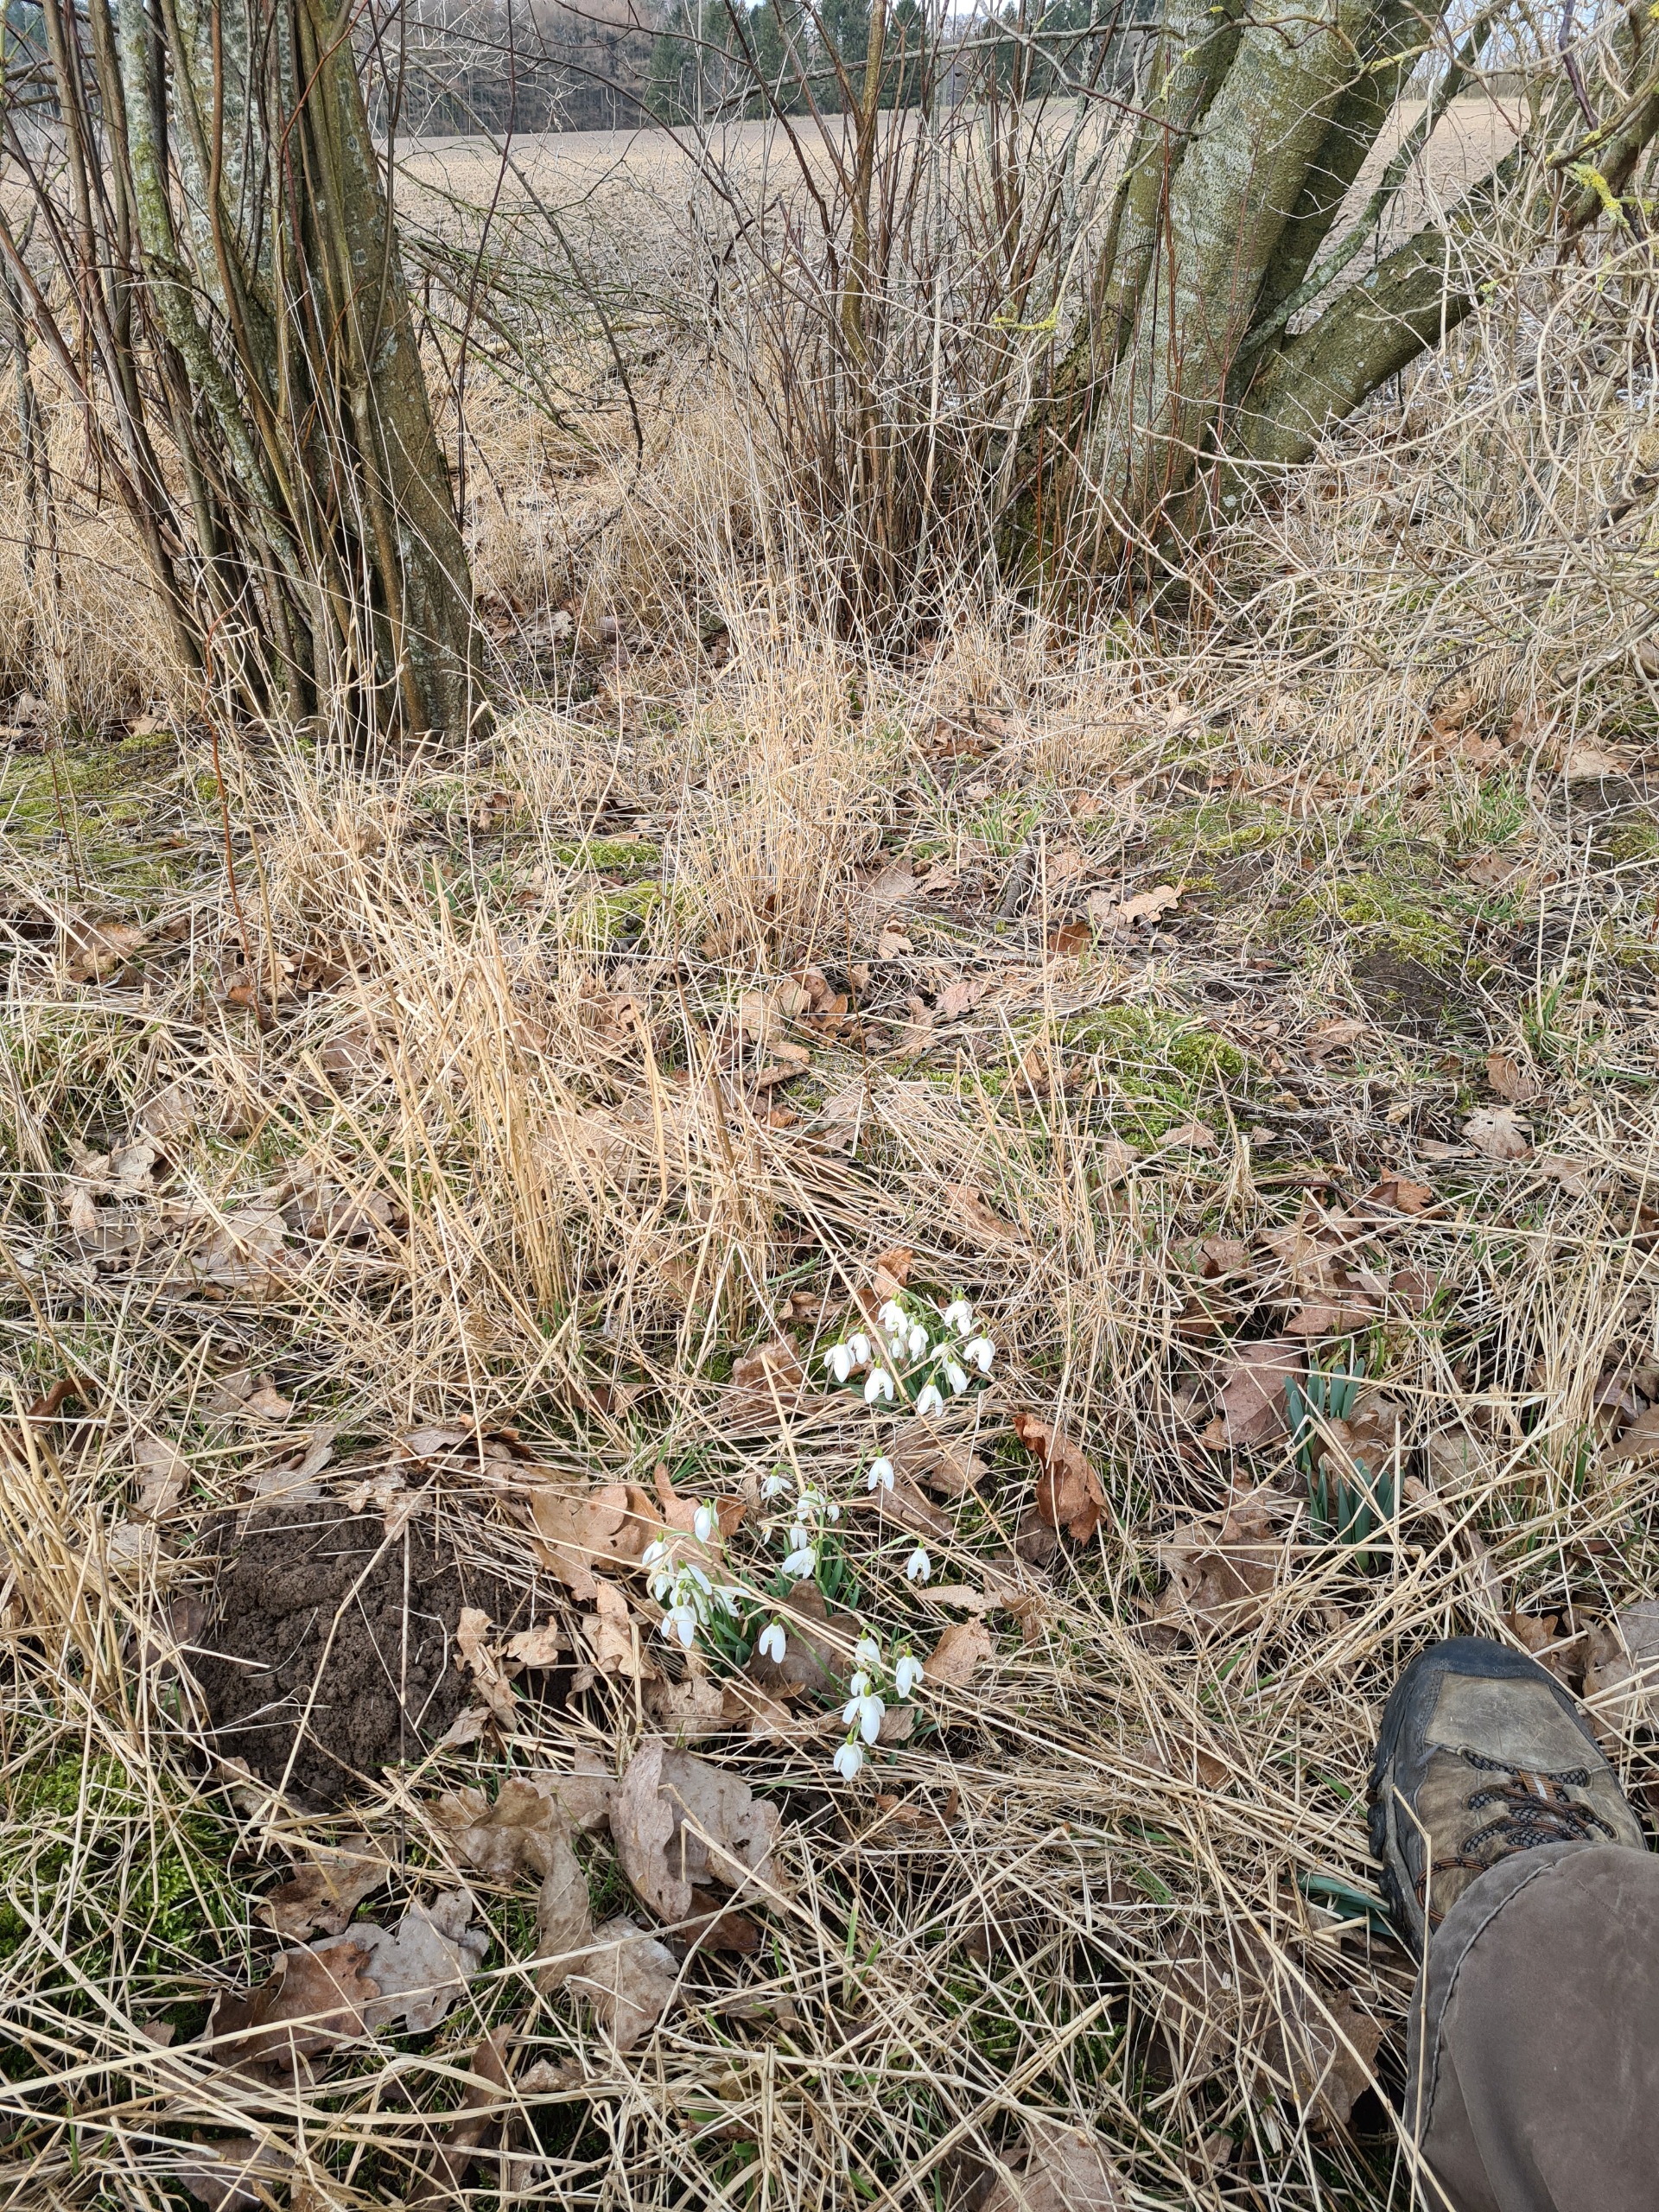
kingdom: Plantae
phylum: Tracheophyta
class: Liliopsida
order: Asparagales
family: Amaryllidaceae
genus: Galanthus
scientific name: Galanthus nivalis
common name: Vintergæk
